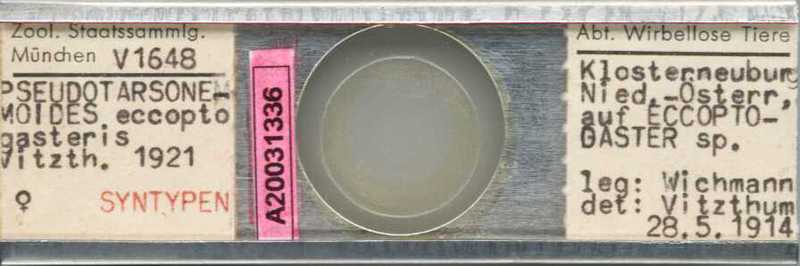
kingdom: Animalia
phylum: Arthropoda
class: Arachnida
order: Trombidiformes
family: Tarsonemidae
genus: Pseudotarsonemoides
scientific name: Pseudotarsonemoides eccoptogasteris
